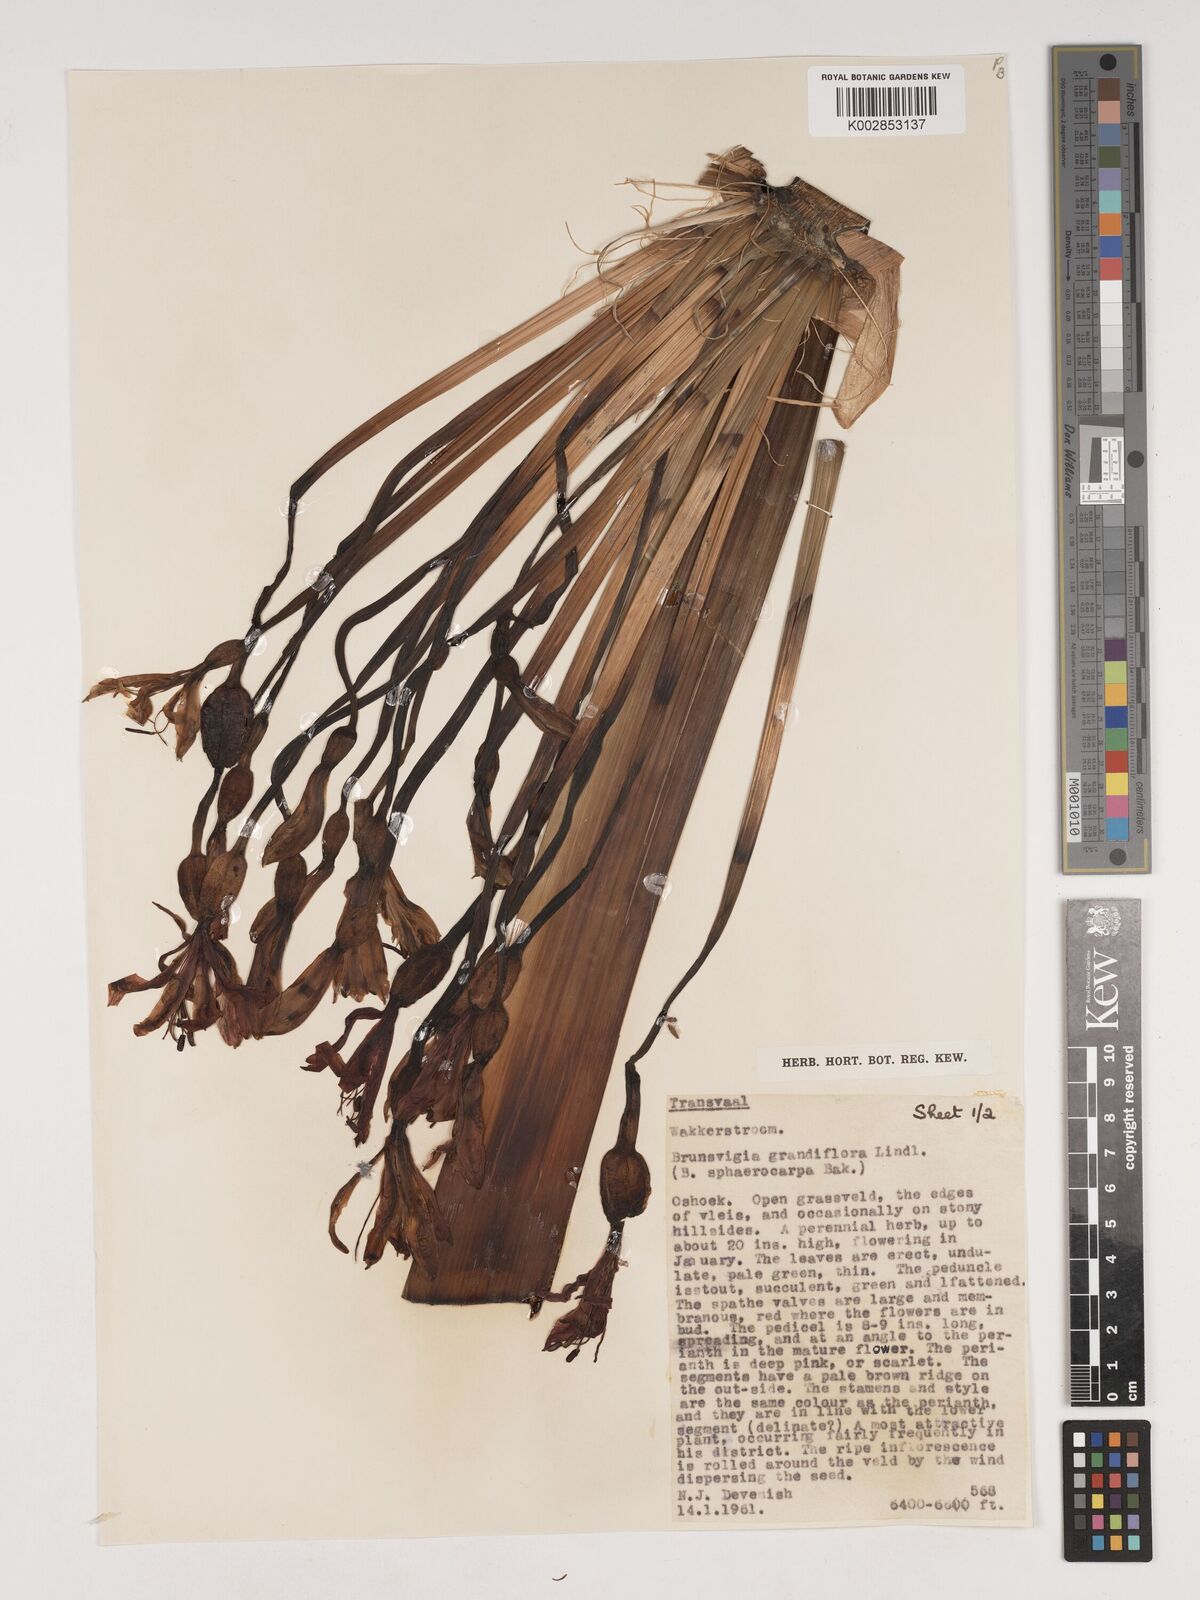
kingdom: Plantae
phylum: Tracheophyta
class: Liliopsida
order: Asparagales
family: Amaryllidaceae
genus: Brunsvigia
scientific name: Brunsvigia grandiflora
